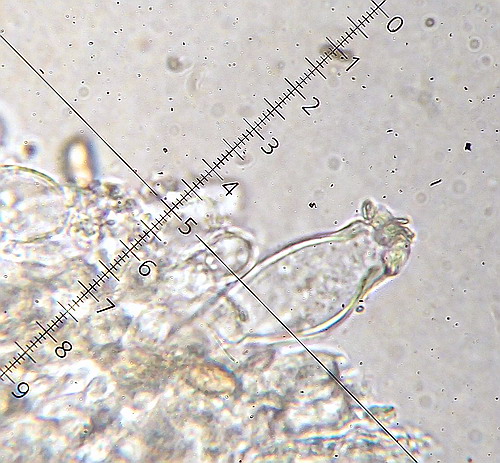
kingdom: Fungi
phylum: Basidiomycota
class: Agaricomycetes
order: Agaricales
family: Inocybaceae
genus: Inocybe
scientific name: Inocybe fraudans
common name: pæreduftende trævlhat
